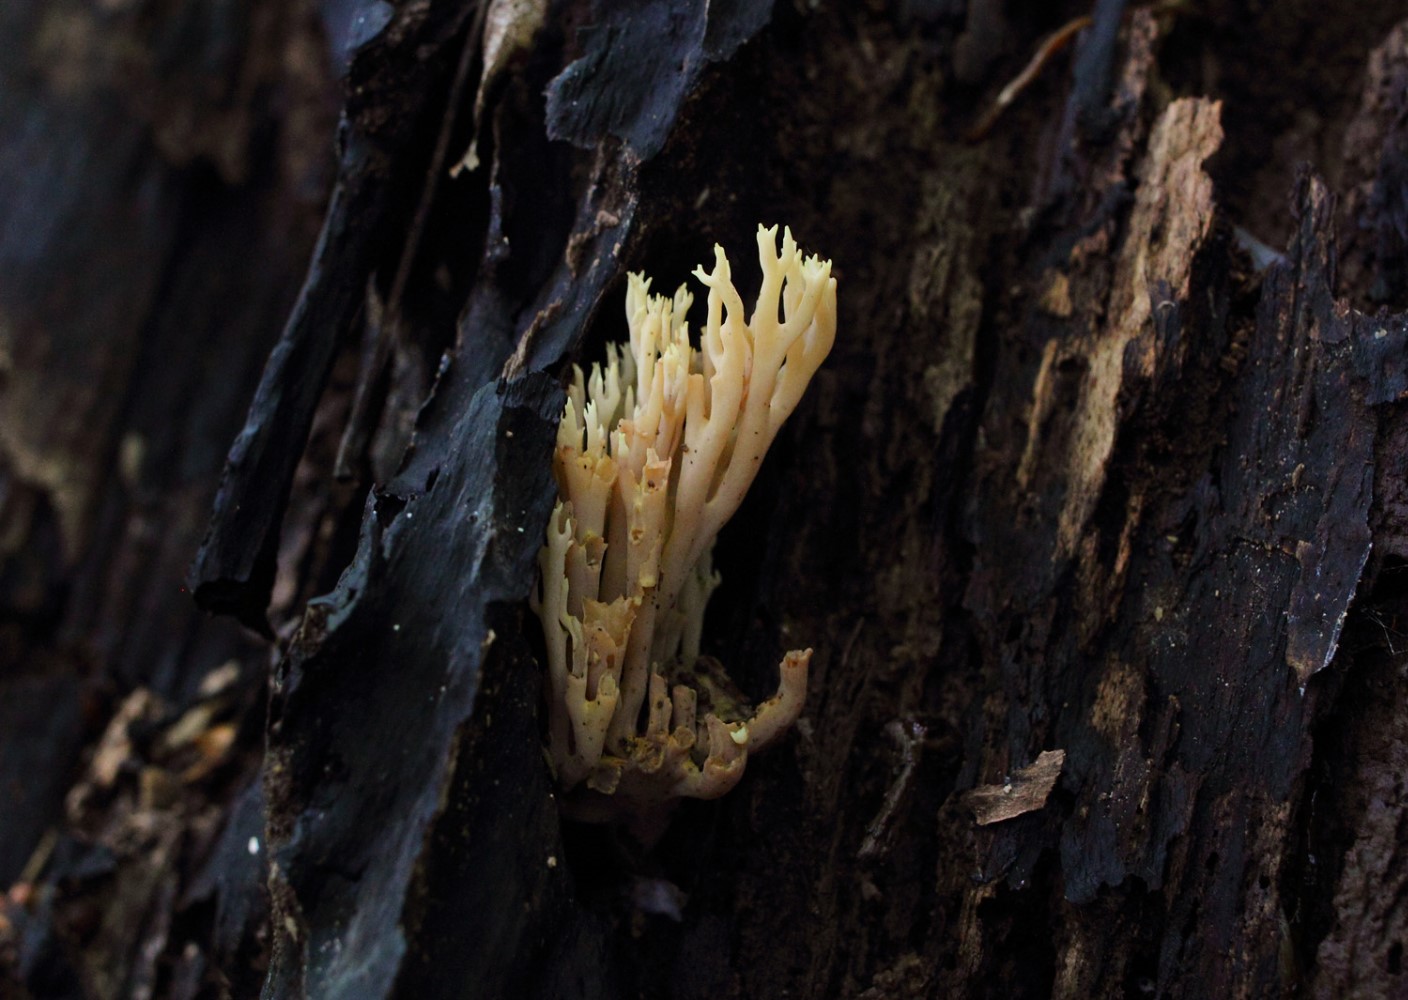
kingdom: Fungi
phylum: Basidiomycota
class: Agaricomycetes
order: Gomphales
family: Gomphaceae
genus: Ramaria
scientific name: Ramaria stricta
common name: rank koralsvamp
